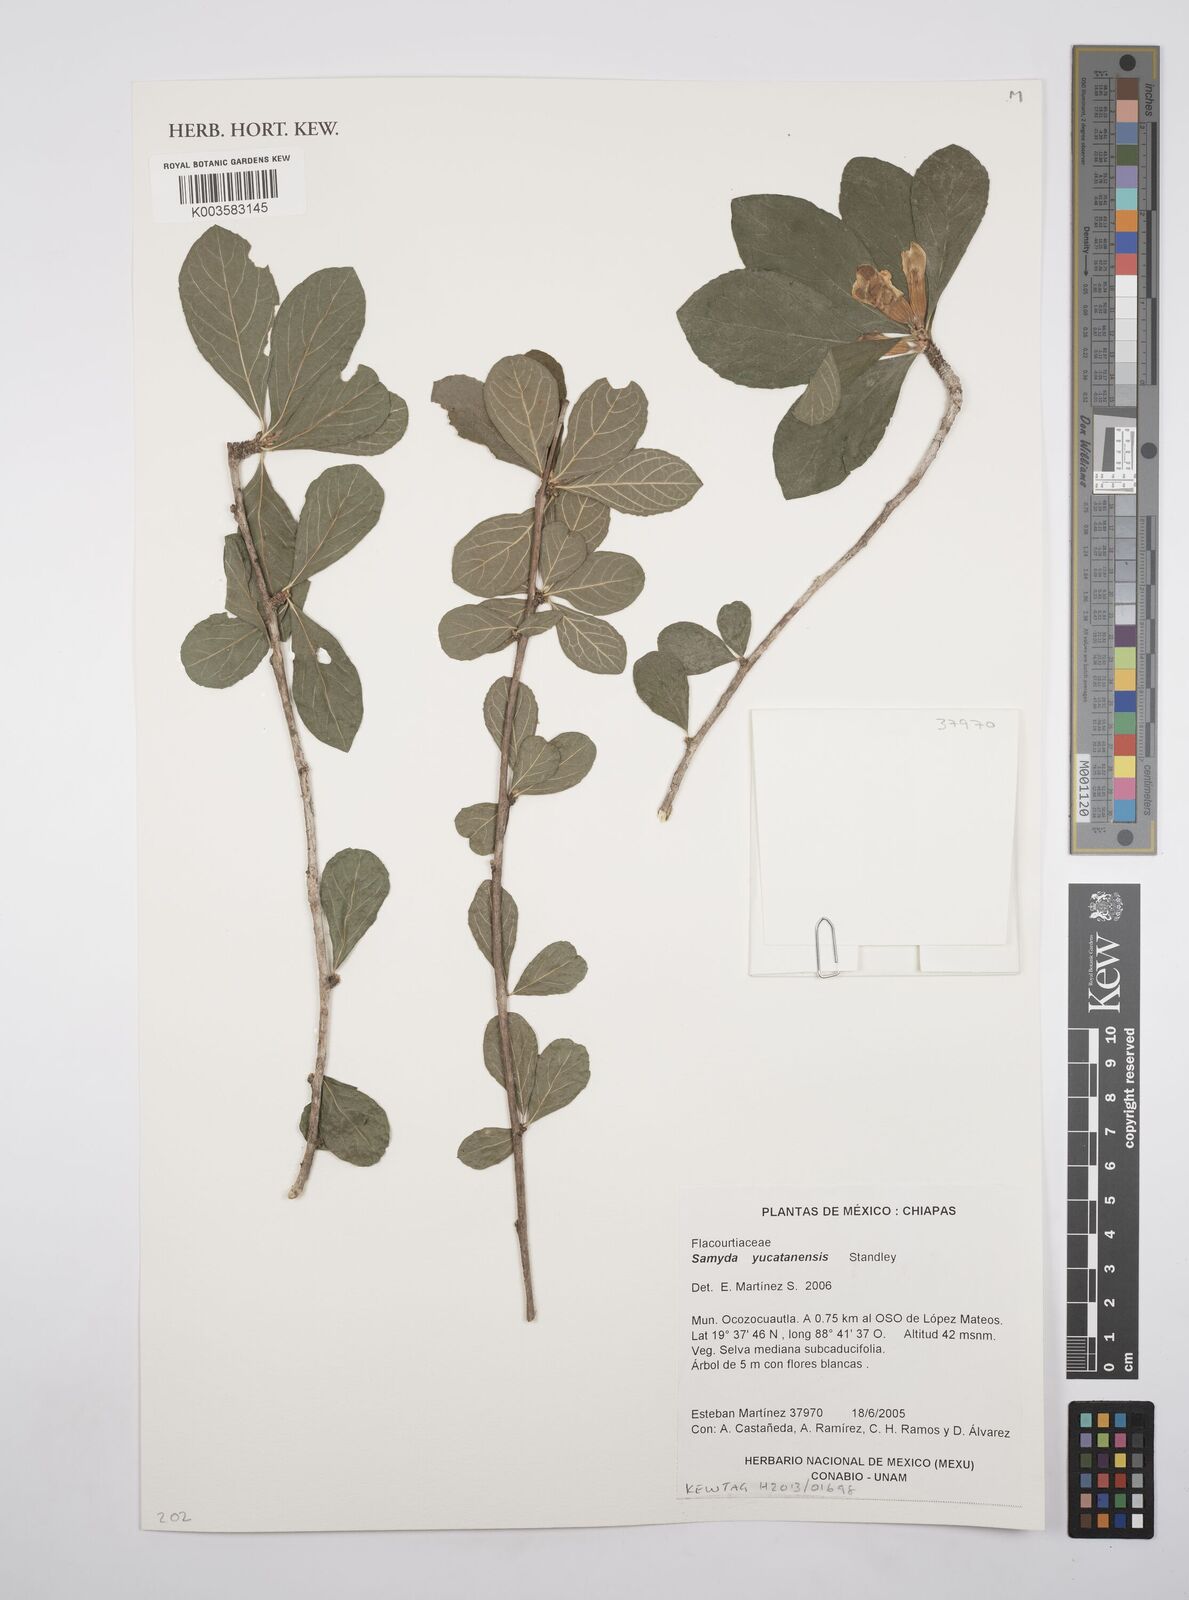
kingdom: Plantae
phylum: Tracheophyta
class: Magnoliopsida
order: Malpighiales
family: Salicaceae
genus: Casearia
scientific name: Casearia yucatanensis
